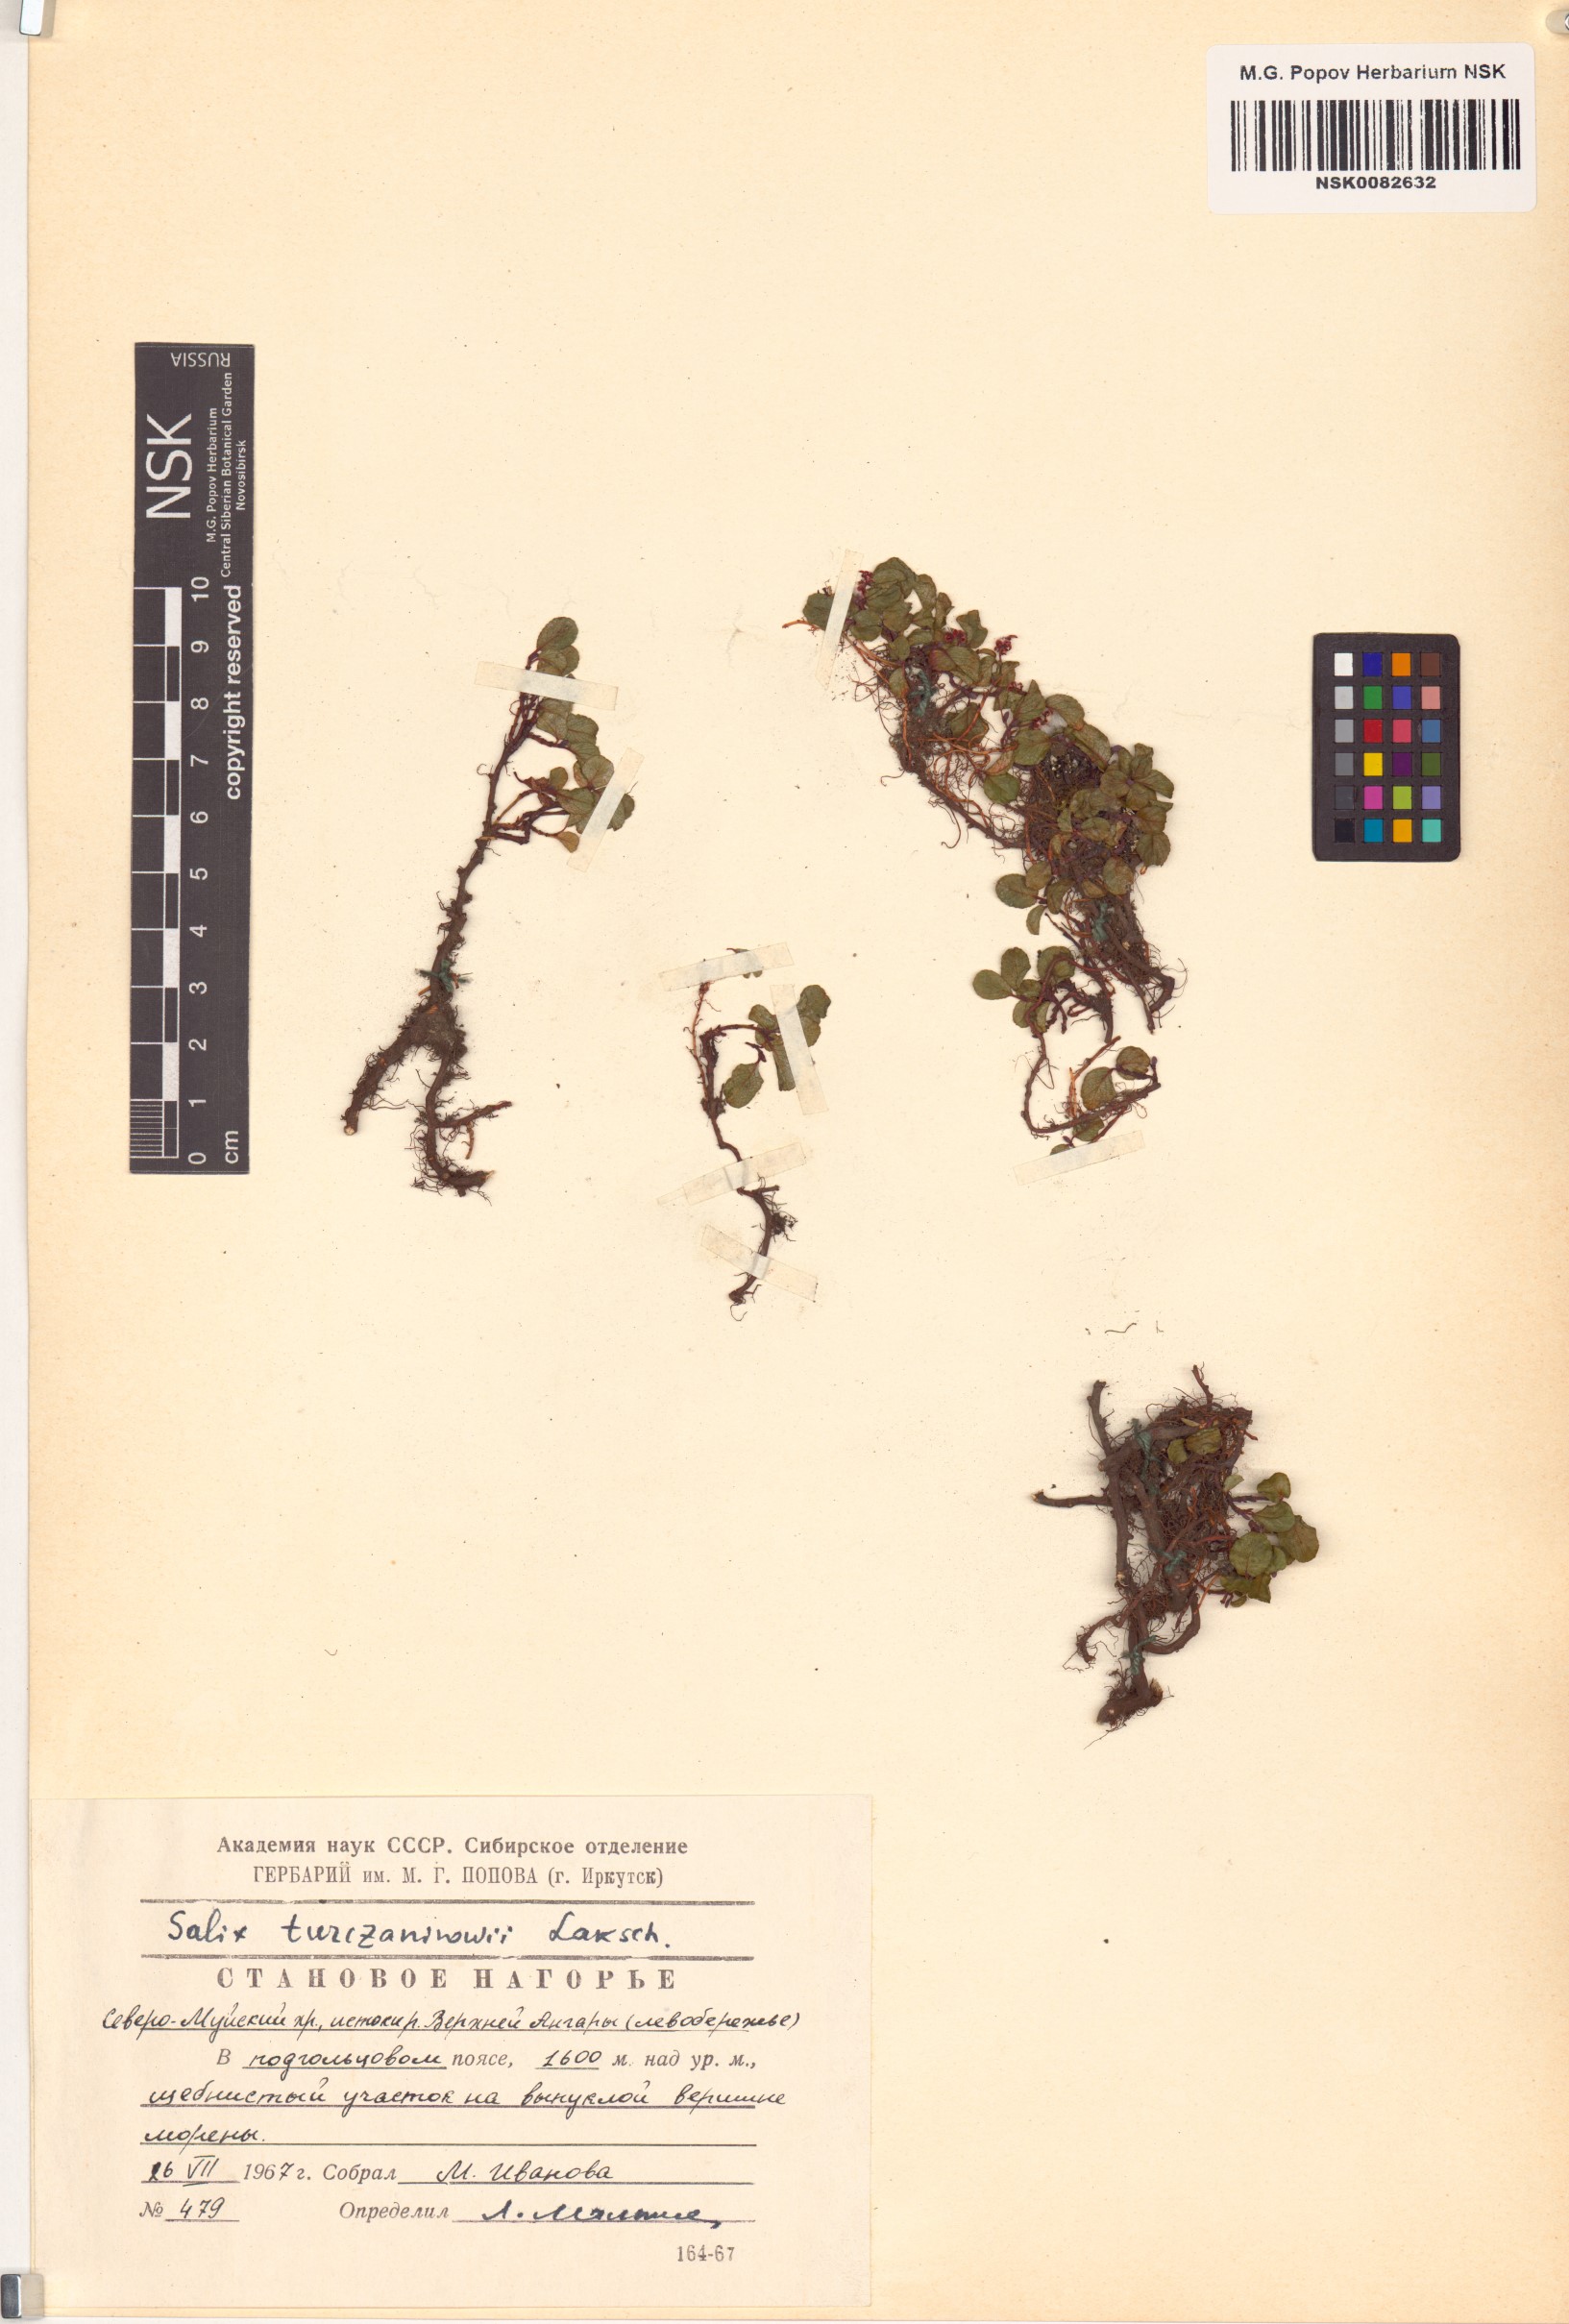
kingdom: Plantae
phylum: Tracheophyta
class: Magnoliopsida
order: Malpighiales
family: Salicaceae
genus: Salix
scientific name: Salix turczaninowii
